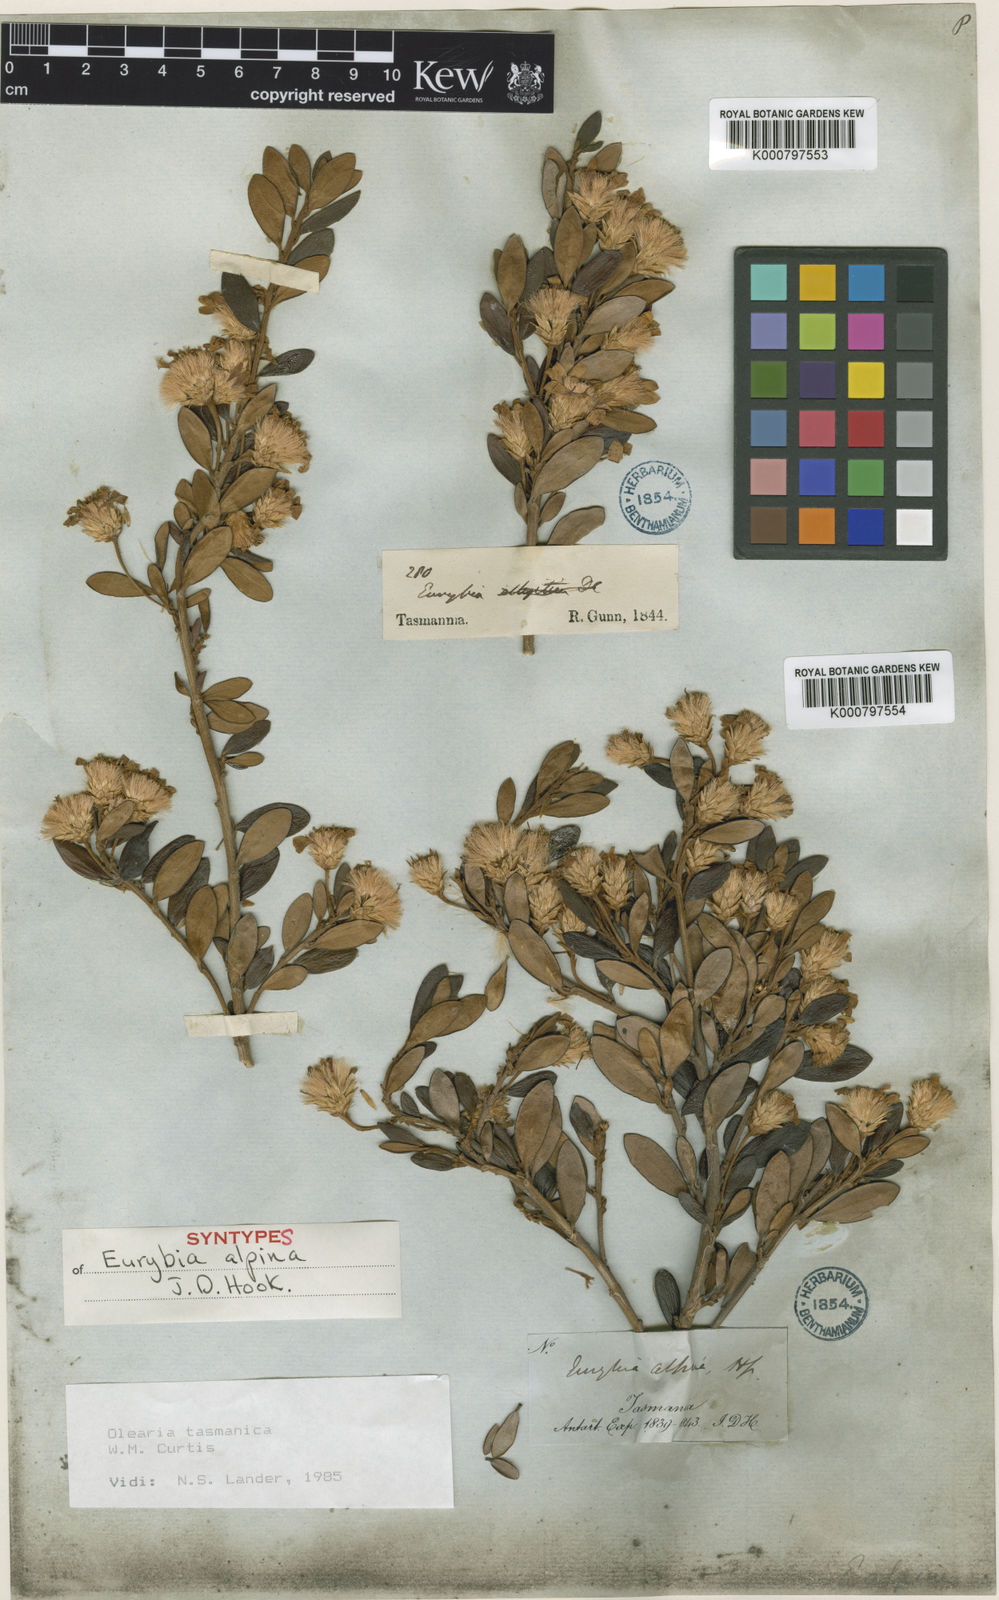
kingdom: Plantae
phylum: Tracheophyta
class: Magnoliopsida
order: Asterales
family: Asteraceae
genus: Olearia
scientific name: Olearia tasmanica
